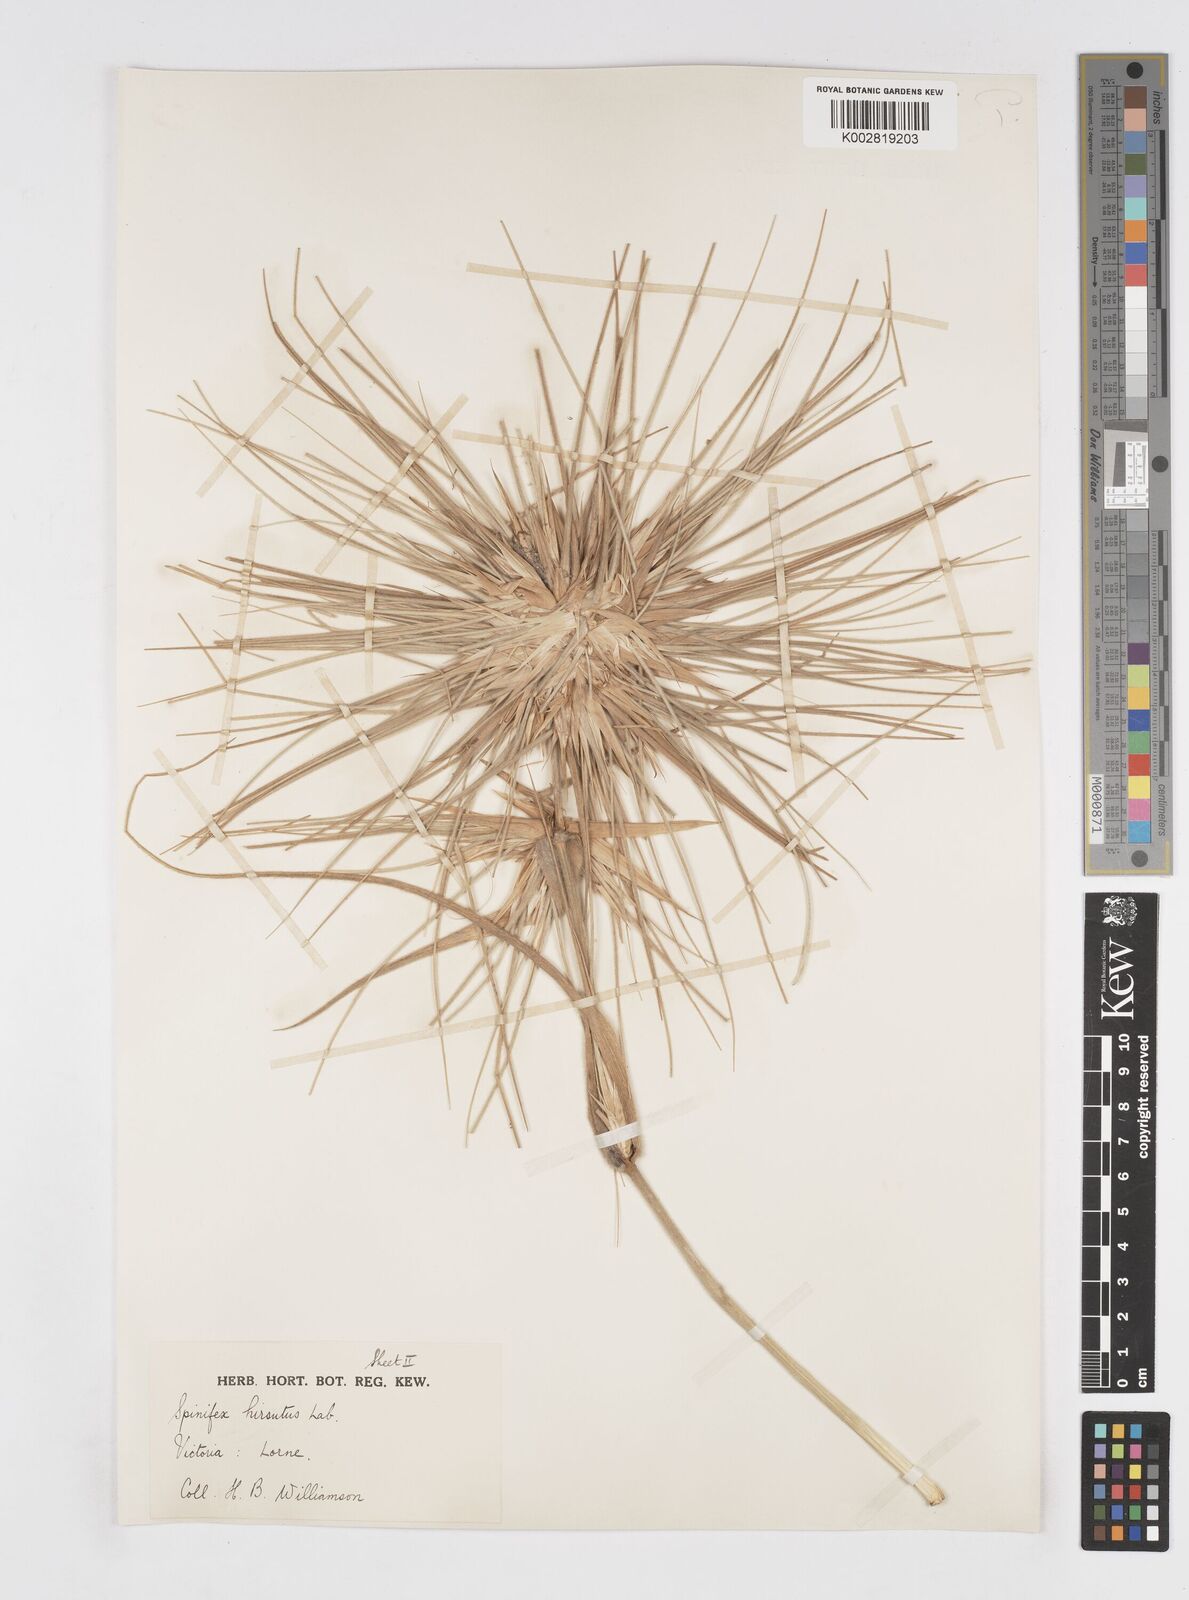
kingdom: Plantae
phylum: Tracheophyta
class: Liliopsida
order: Poales
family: Poaceae
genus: Spinifex
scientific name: Spinifex sericeus
